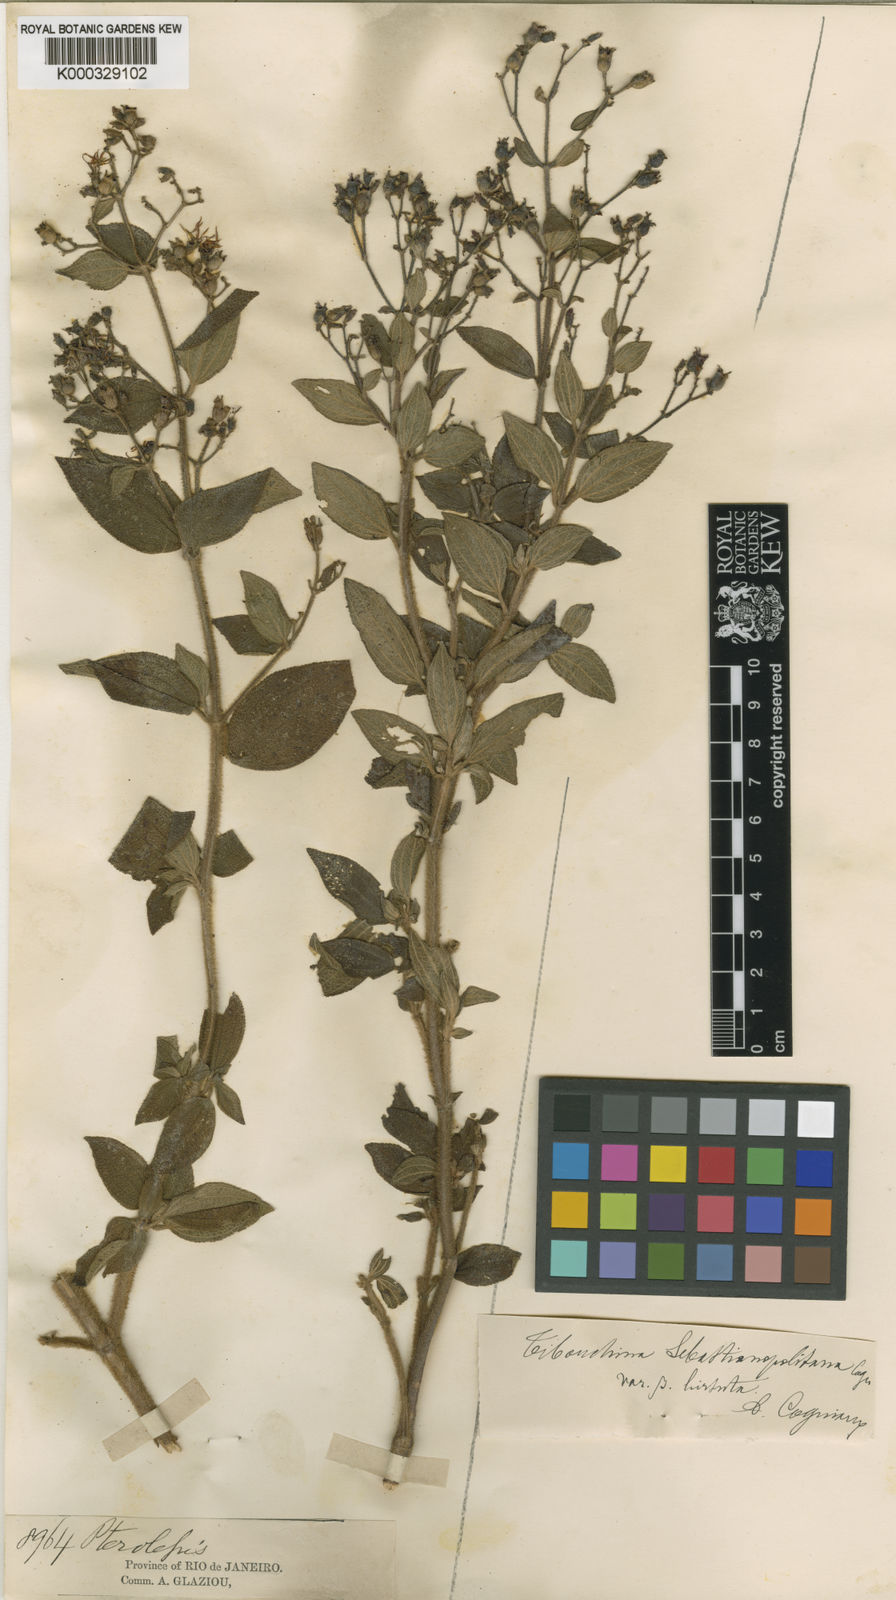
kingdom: Plantae
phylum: Tracheophyta
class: Magnoliopsida
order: Myrtales
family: Melastomataceae
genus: Chaetogastra
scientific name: Chaetogastra sebastianopolitana
